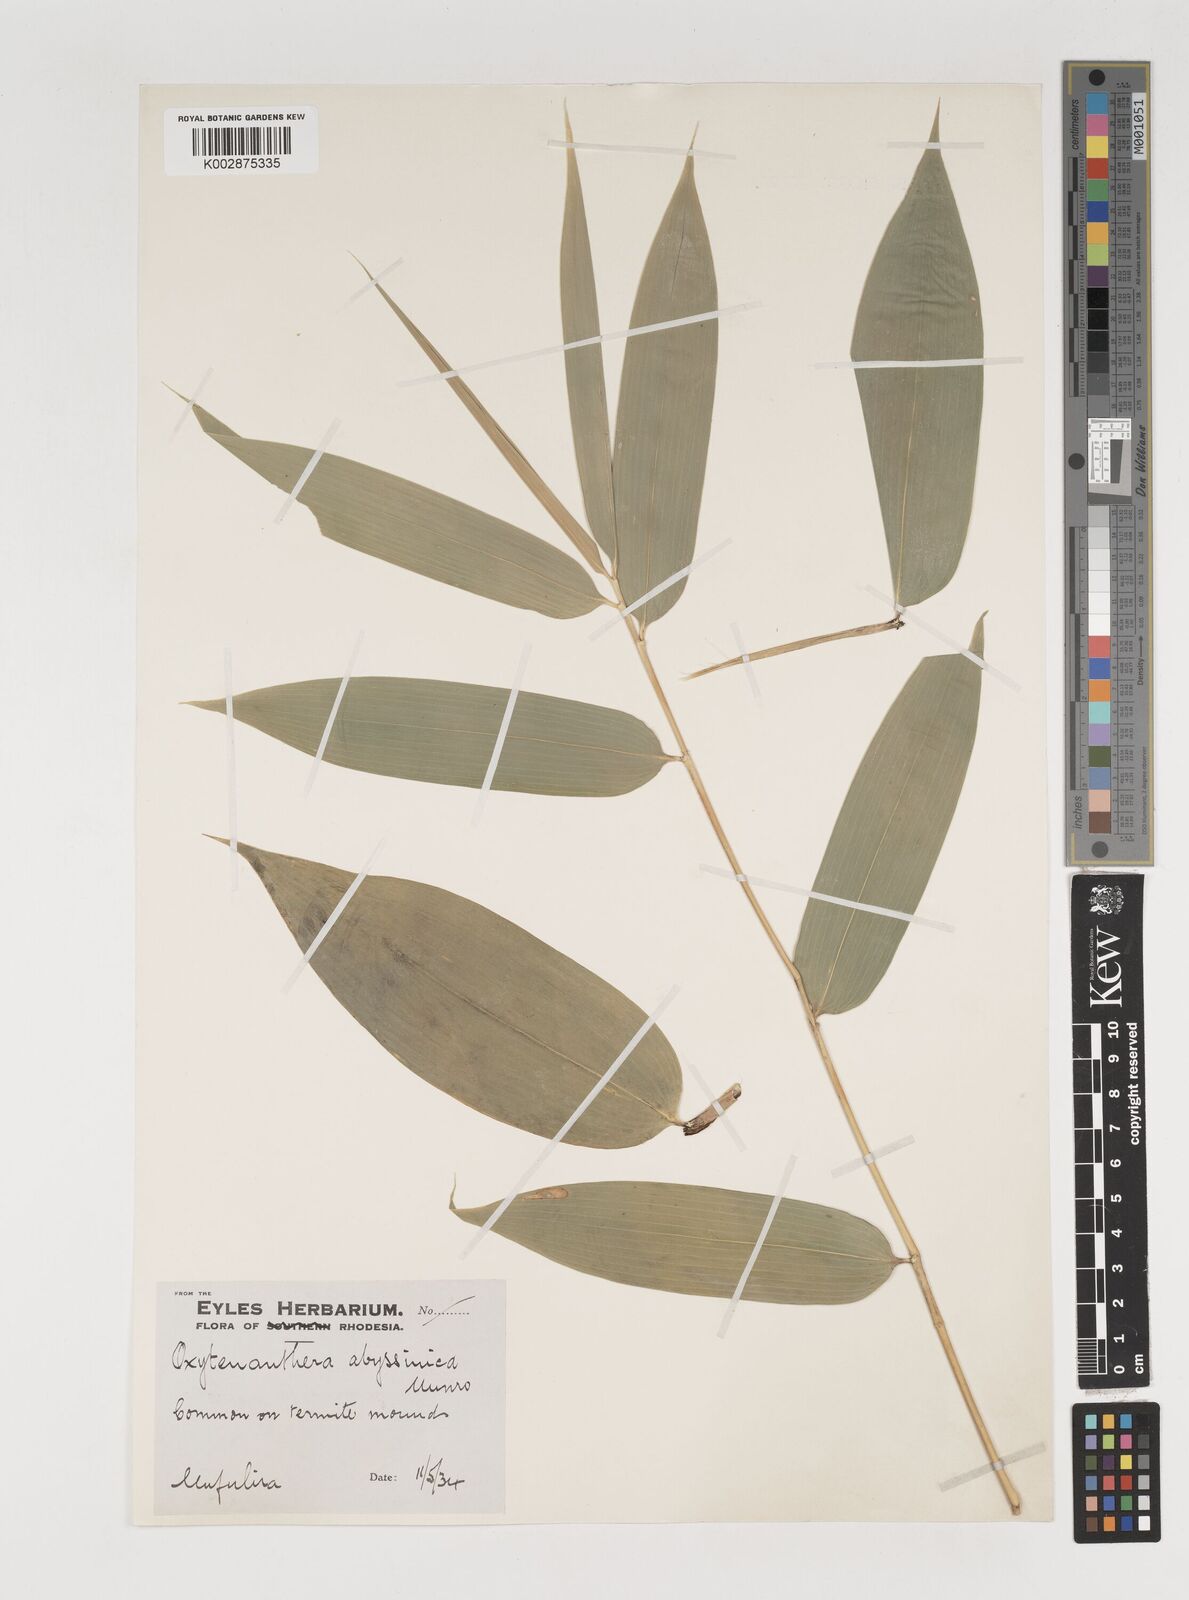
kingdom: Plantae
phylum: Tracheophyta
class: Liliopsida
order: Poales
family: Poaceae
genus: Oxytenanthera
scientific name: Oxytenanthera abyssinica
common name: Wine bamboo
